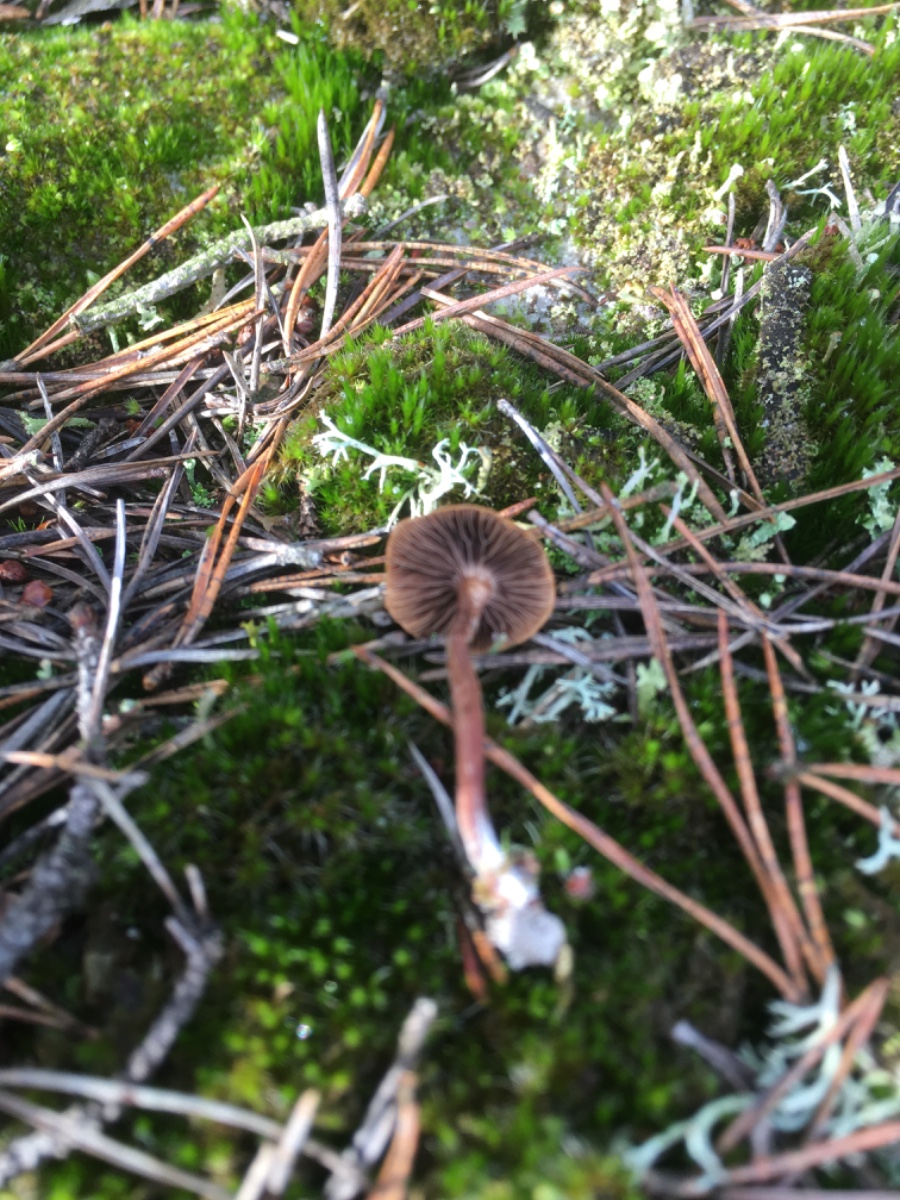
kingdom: Fungi
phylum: Basidiomycota
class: Agaricomycetes
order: Agaricales
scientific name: Agaricales
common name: champignonordenen
